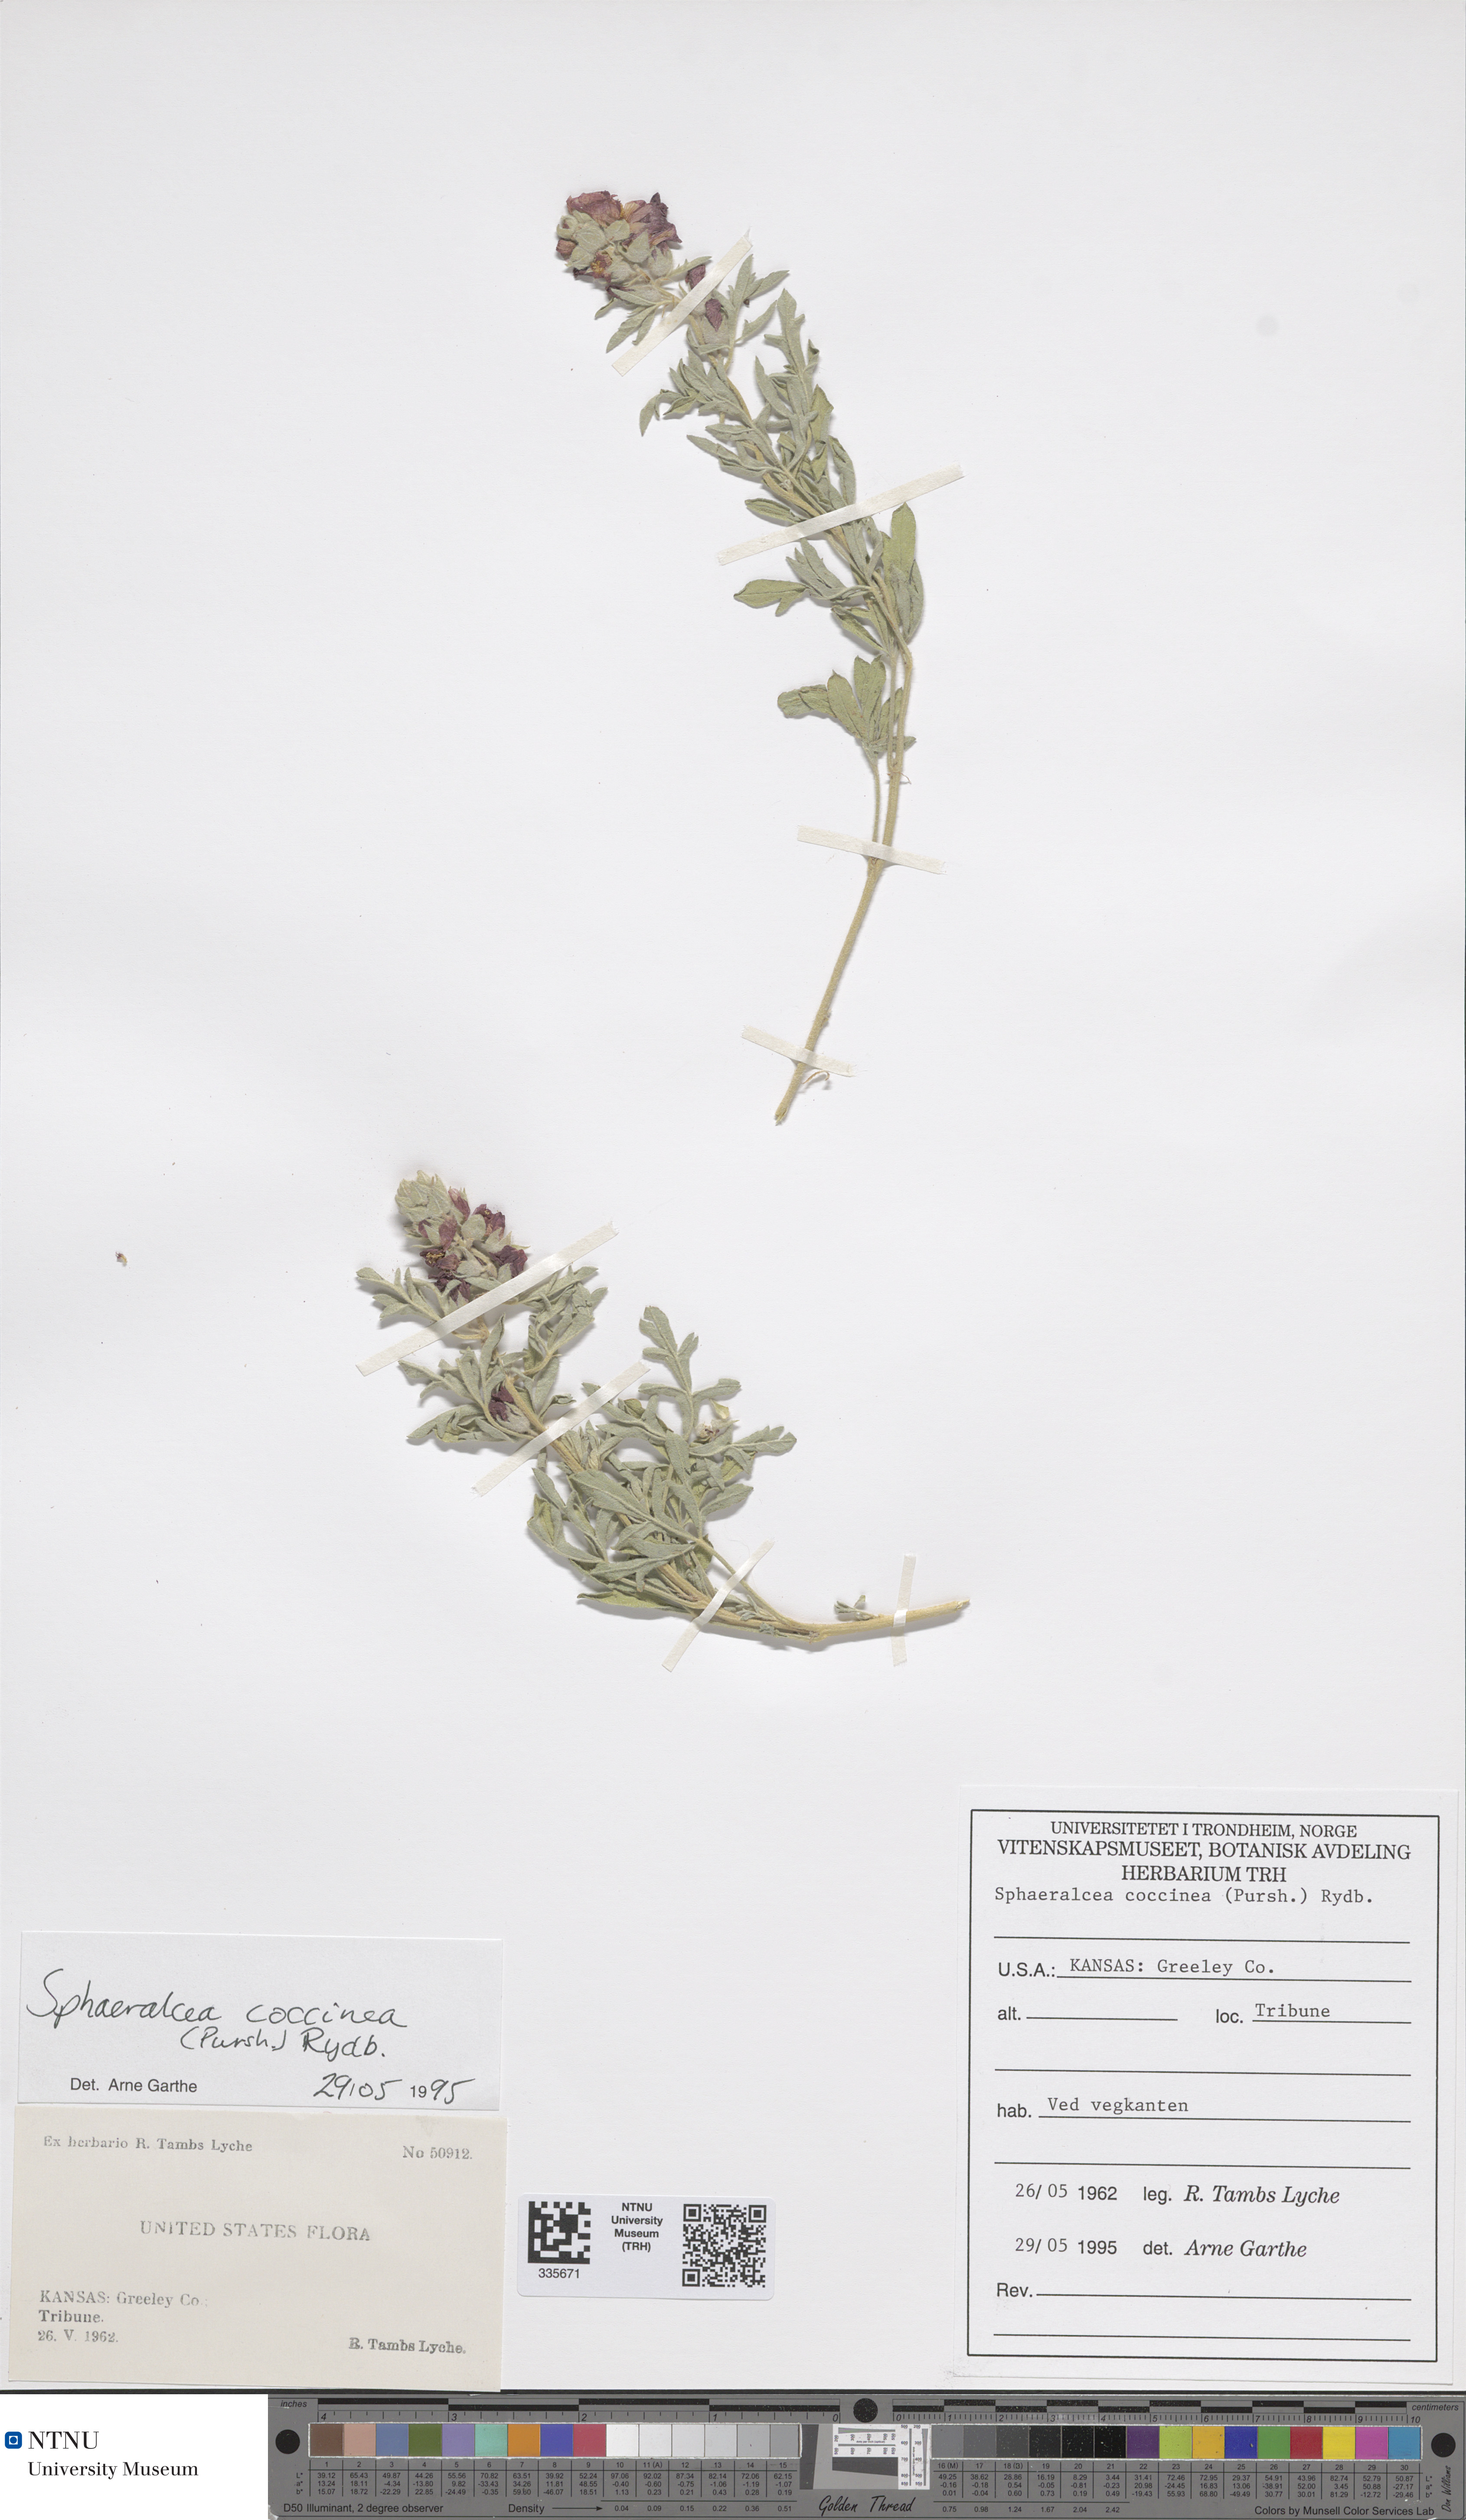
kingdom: Plantae
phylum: Tracheophyta
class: Magnoliopsida
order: Malvales
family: Malvaceae
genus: Sphaeralcea
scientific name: Sphaeralcea coccinea
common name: Moss-rose
